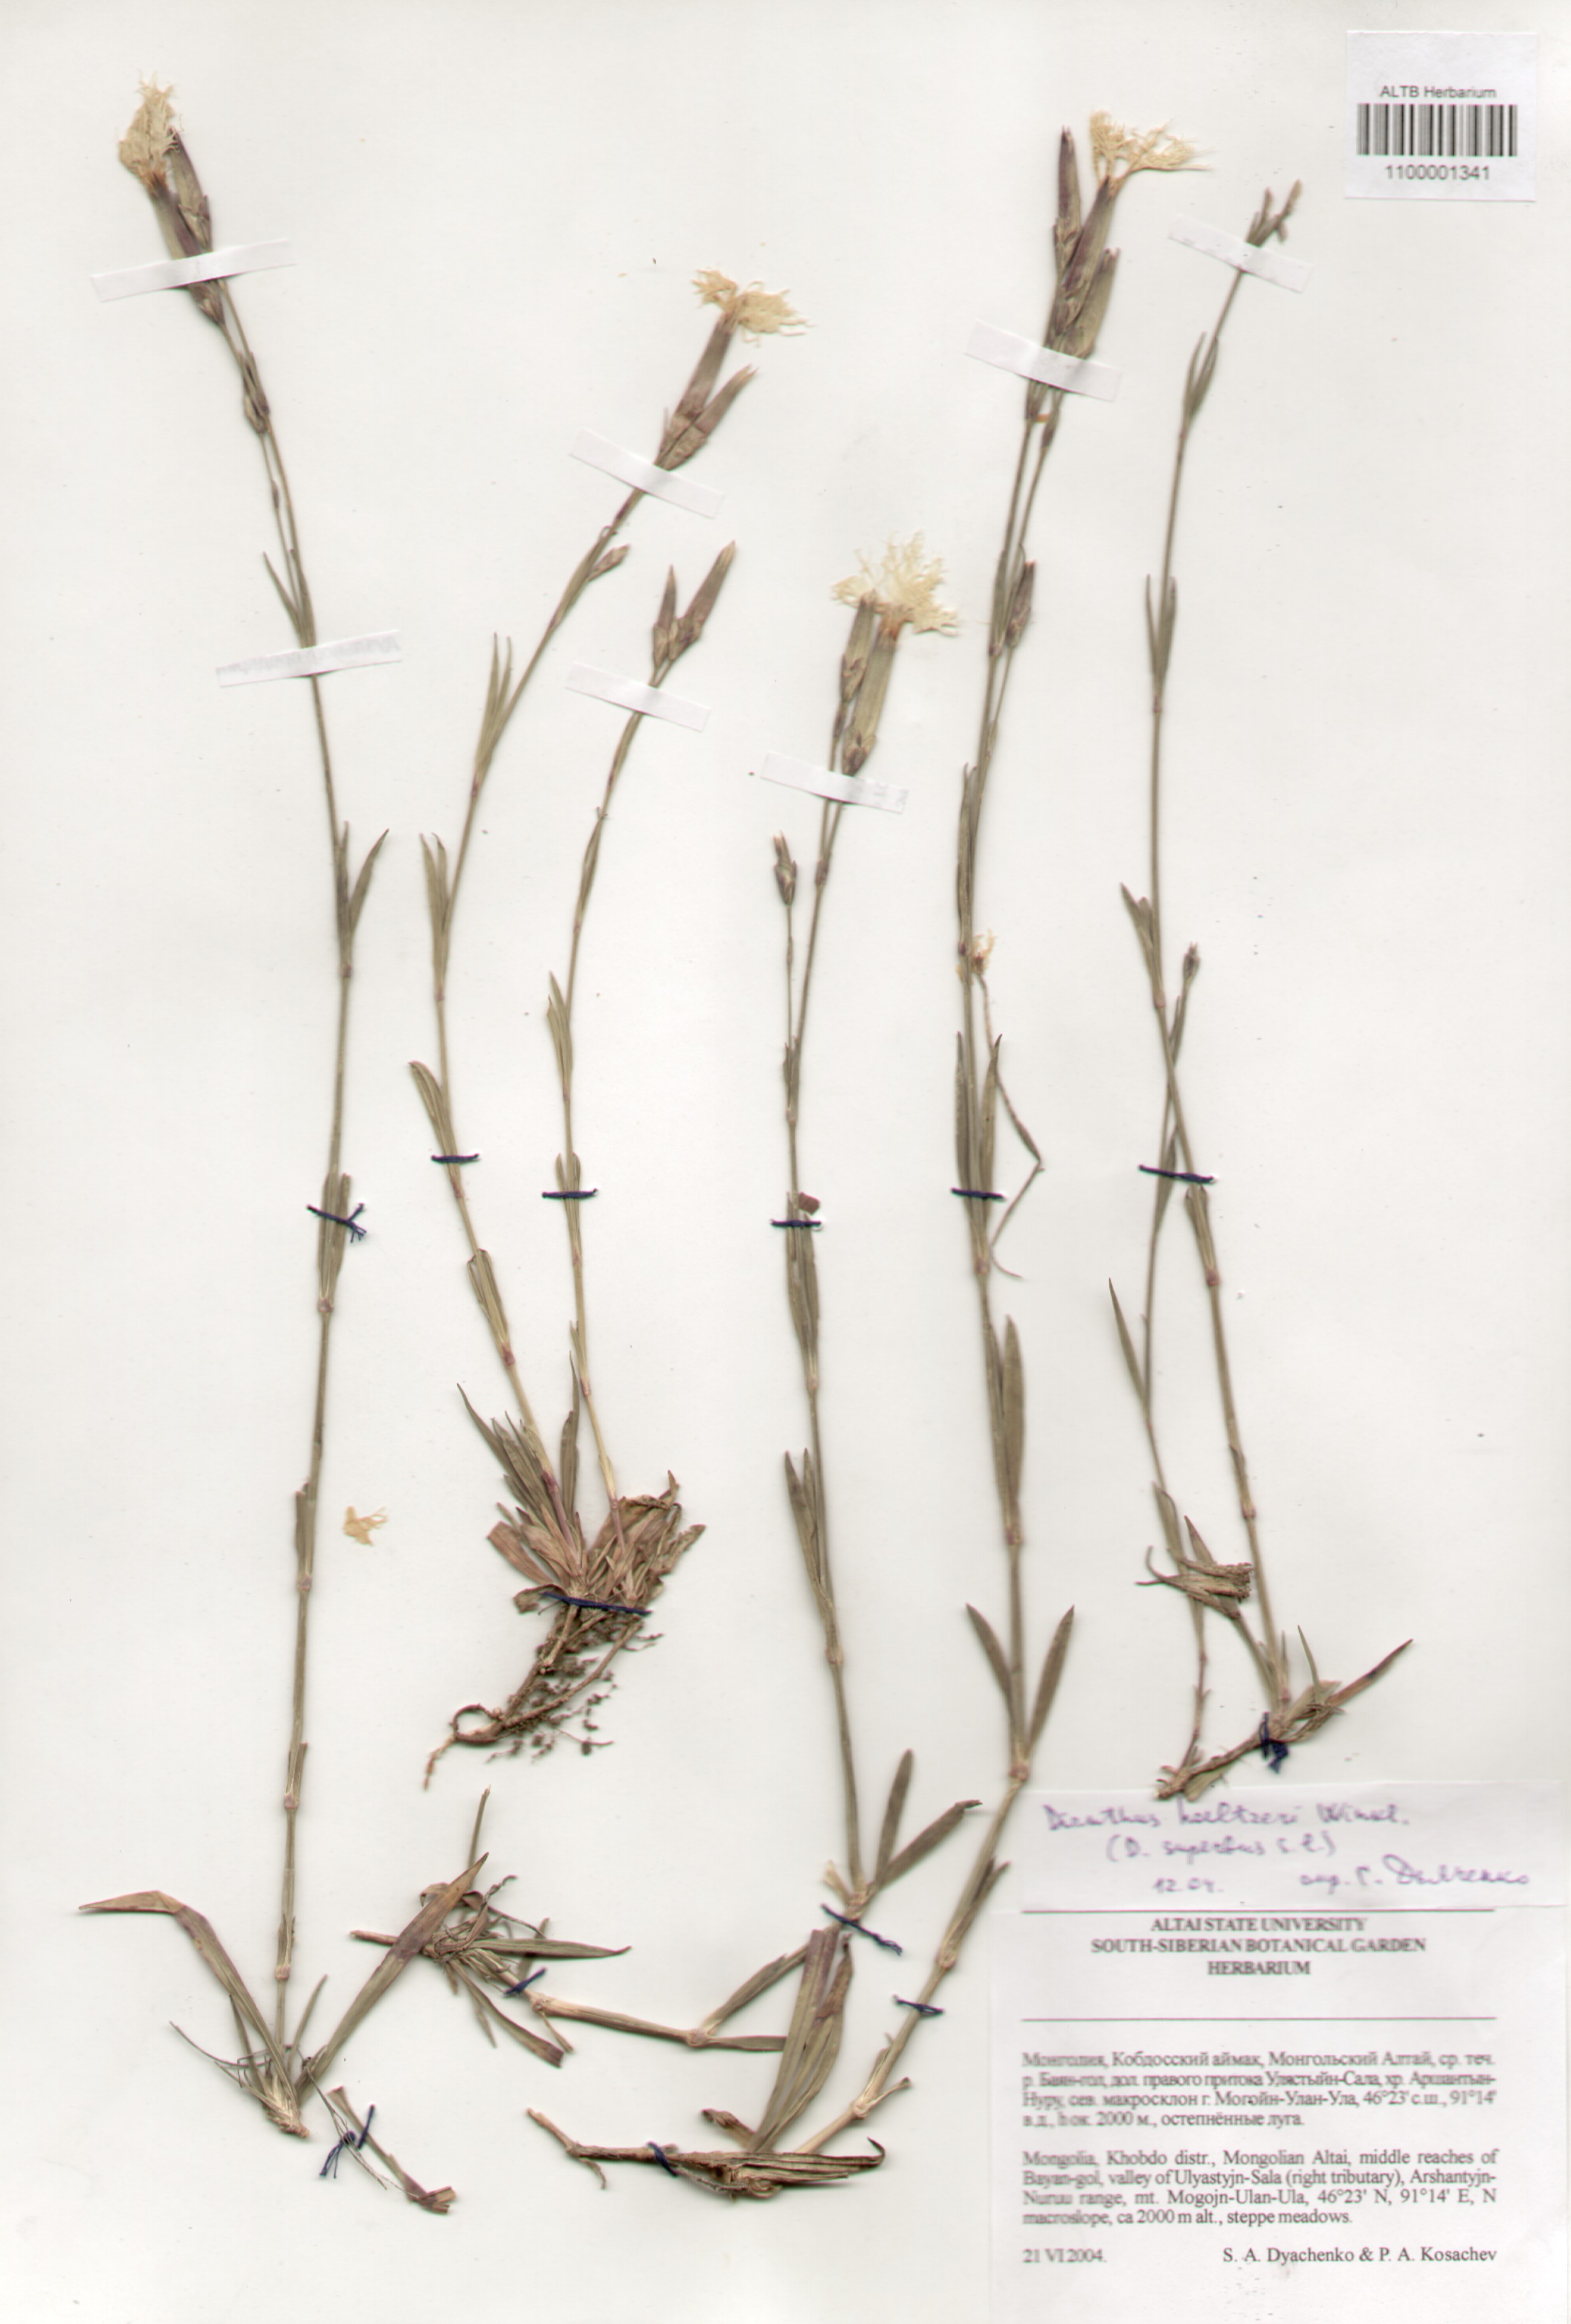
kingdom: Plantae
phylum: Tracheophyta
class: Magnoliopsida
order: Caryophyllales
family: Caryophyllaceae
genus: Dianthus
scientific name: Dianthus hoeltzeri
